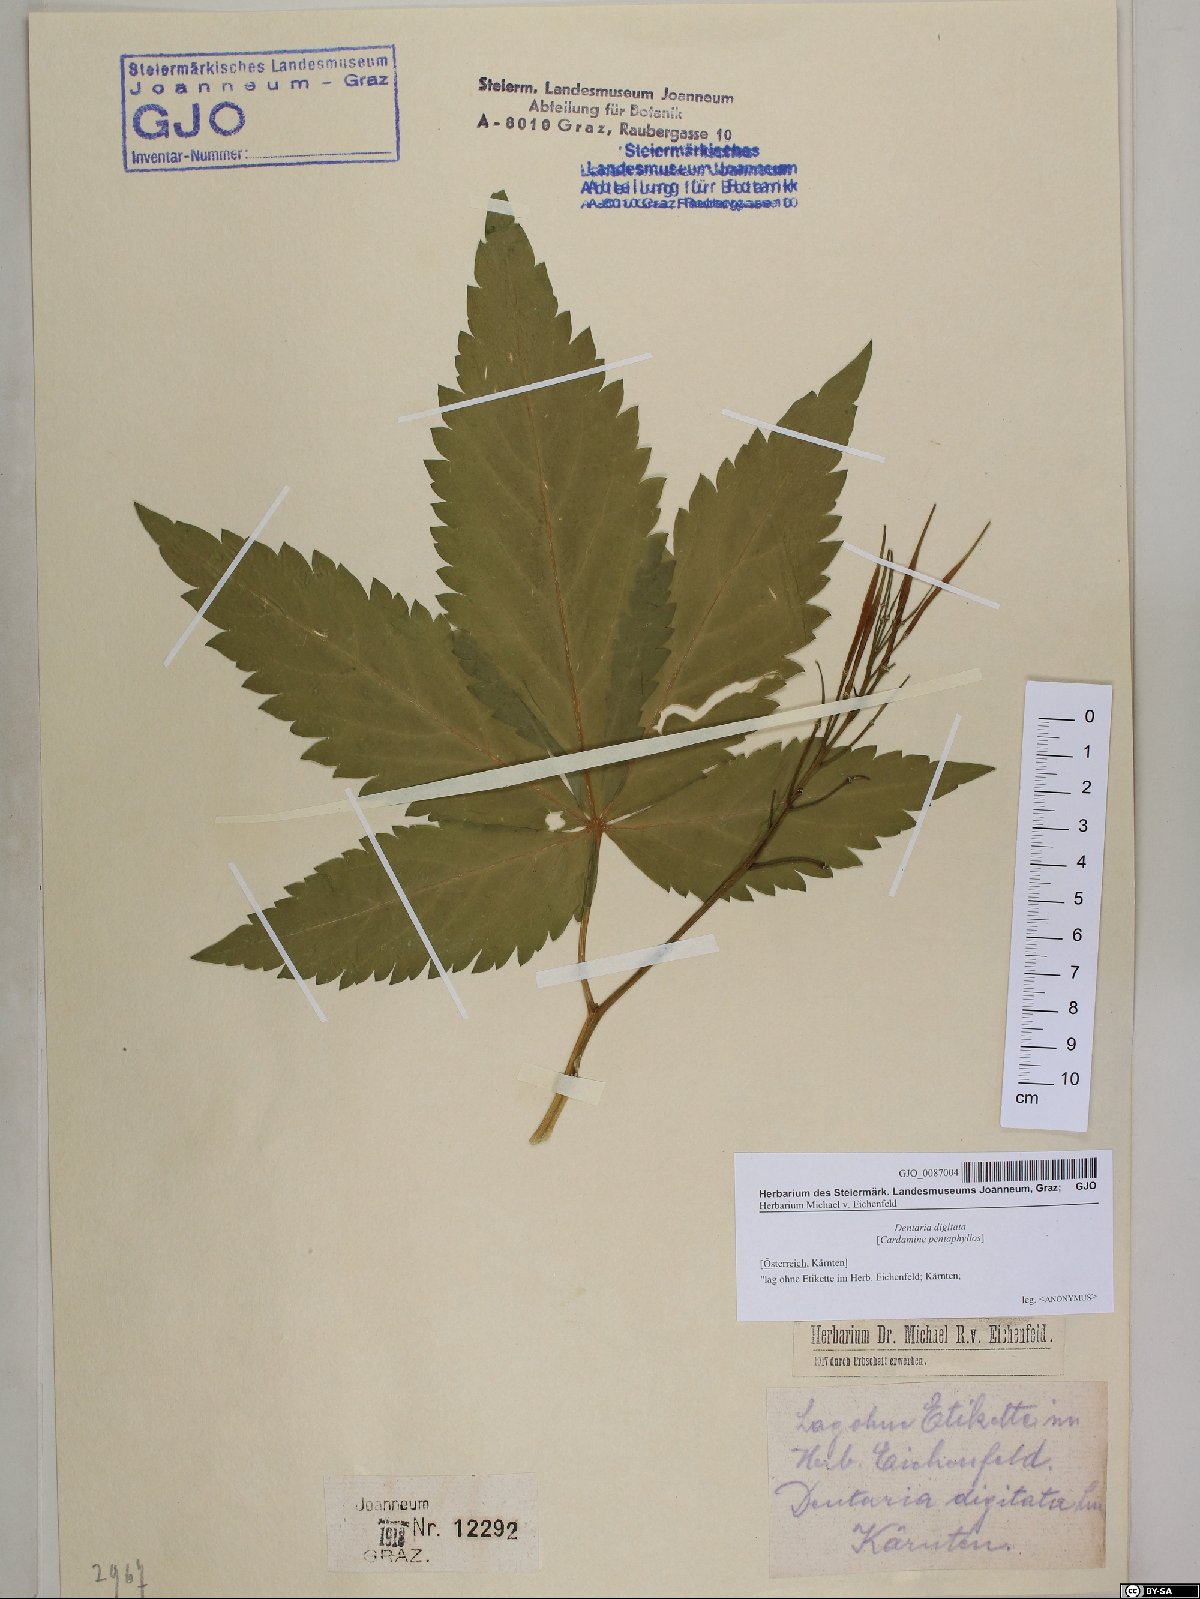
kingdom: Plantae
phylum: Tracheophyta
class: Magnoliopsida
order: Brassicales
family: Brassicaceae
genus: Cardamine
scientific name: Cardamine pentaphyllos
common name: Five-leaflet bitter-cress
